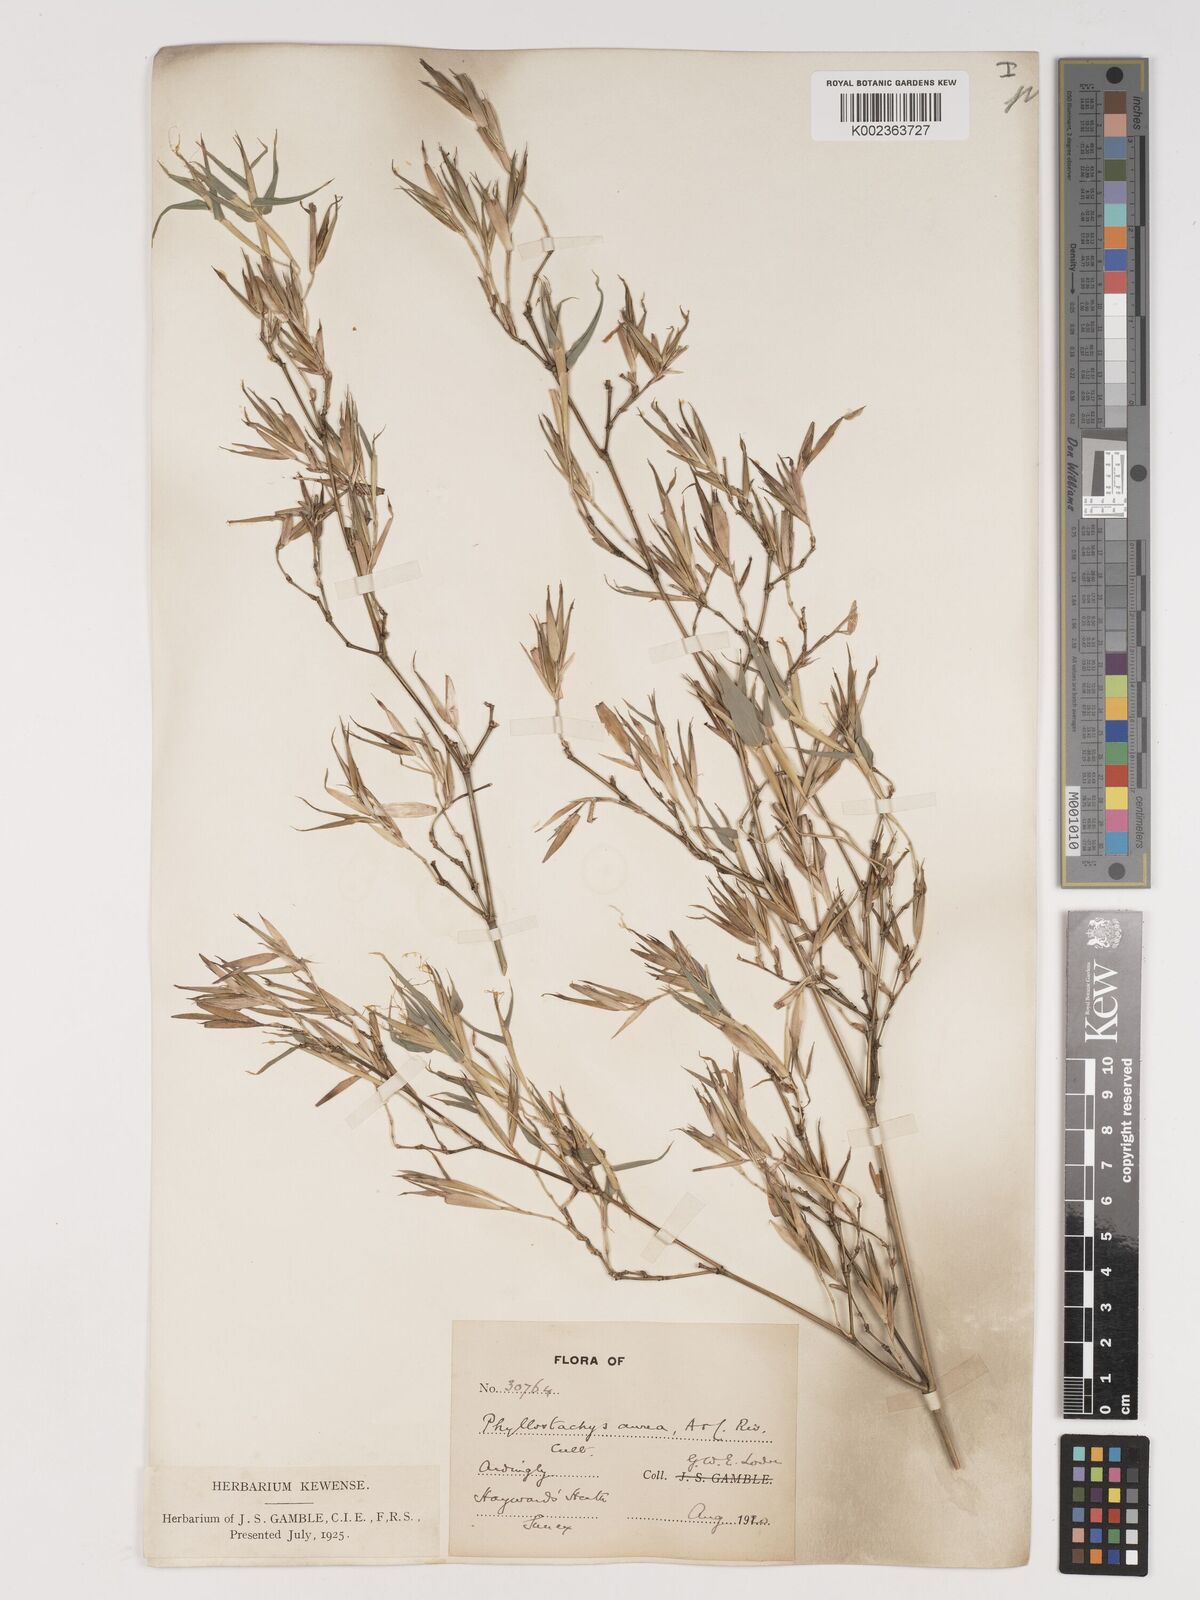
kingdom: Plantae
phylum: Tracheophyta
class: Liliopsida
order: Poales
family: Poaceae
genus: Phyllostachys
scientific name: Phyllostachys aurea
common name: Golden bamboo
